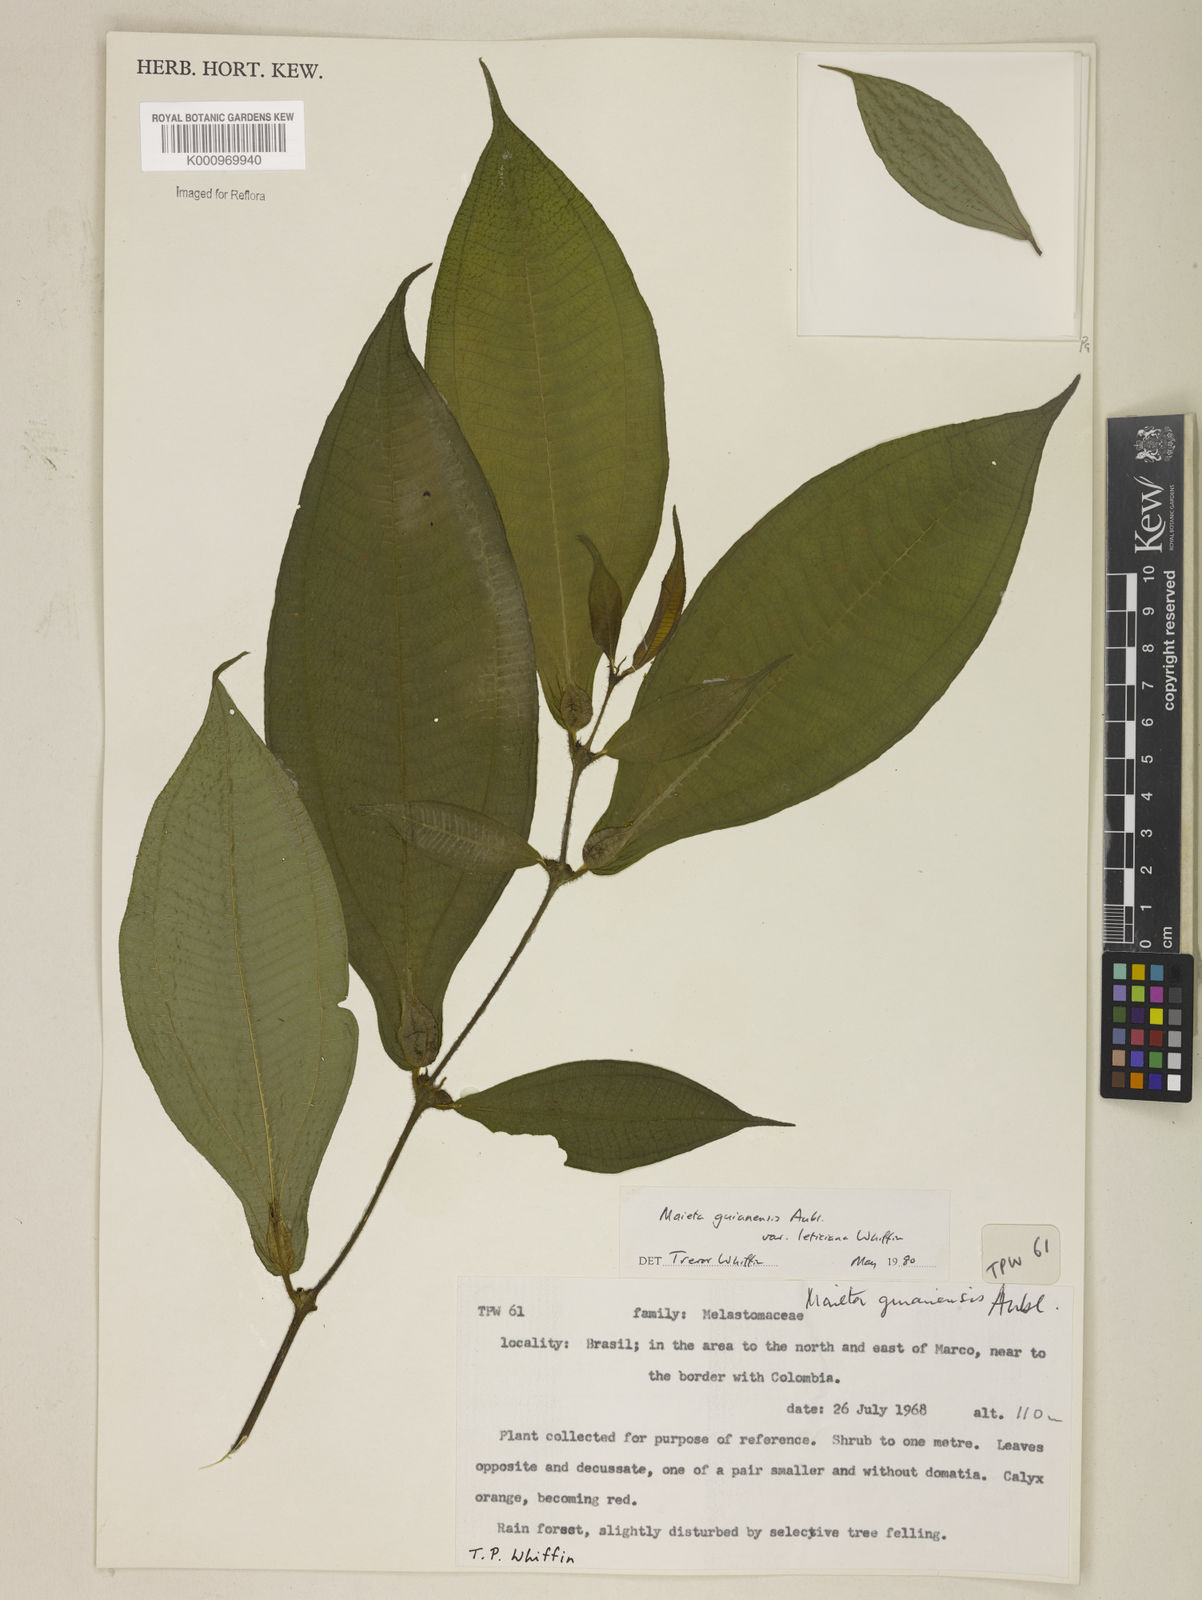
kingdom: Plantae
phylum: Tracheophyta
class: Magnoliopsida
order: Myrtales
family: Melastomataceae
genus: Miconia
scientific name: Miconia mayeta
